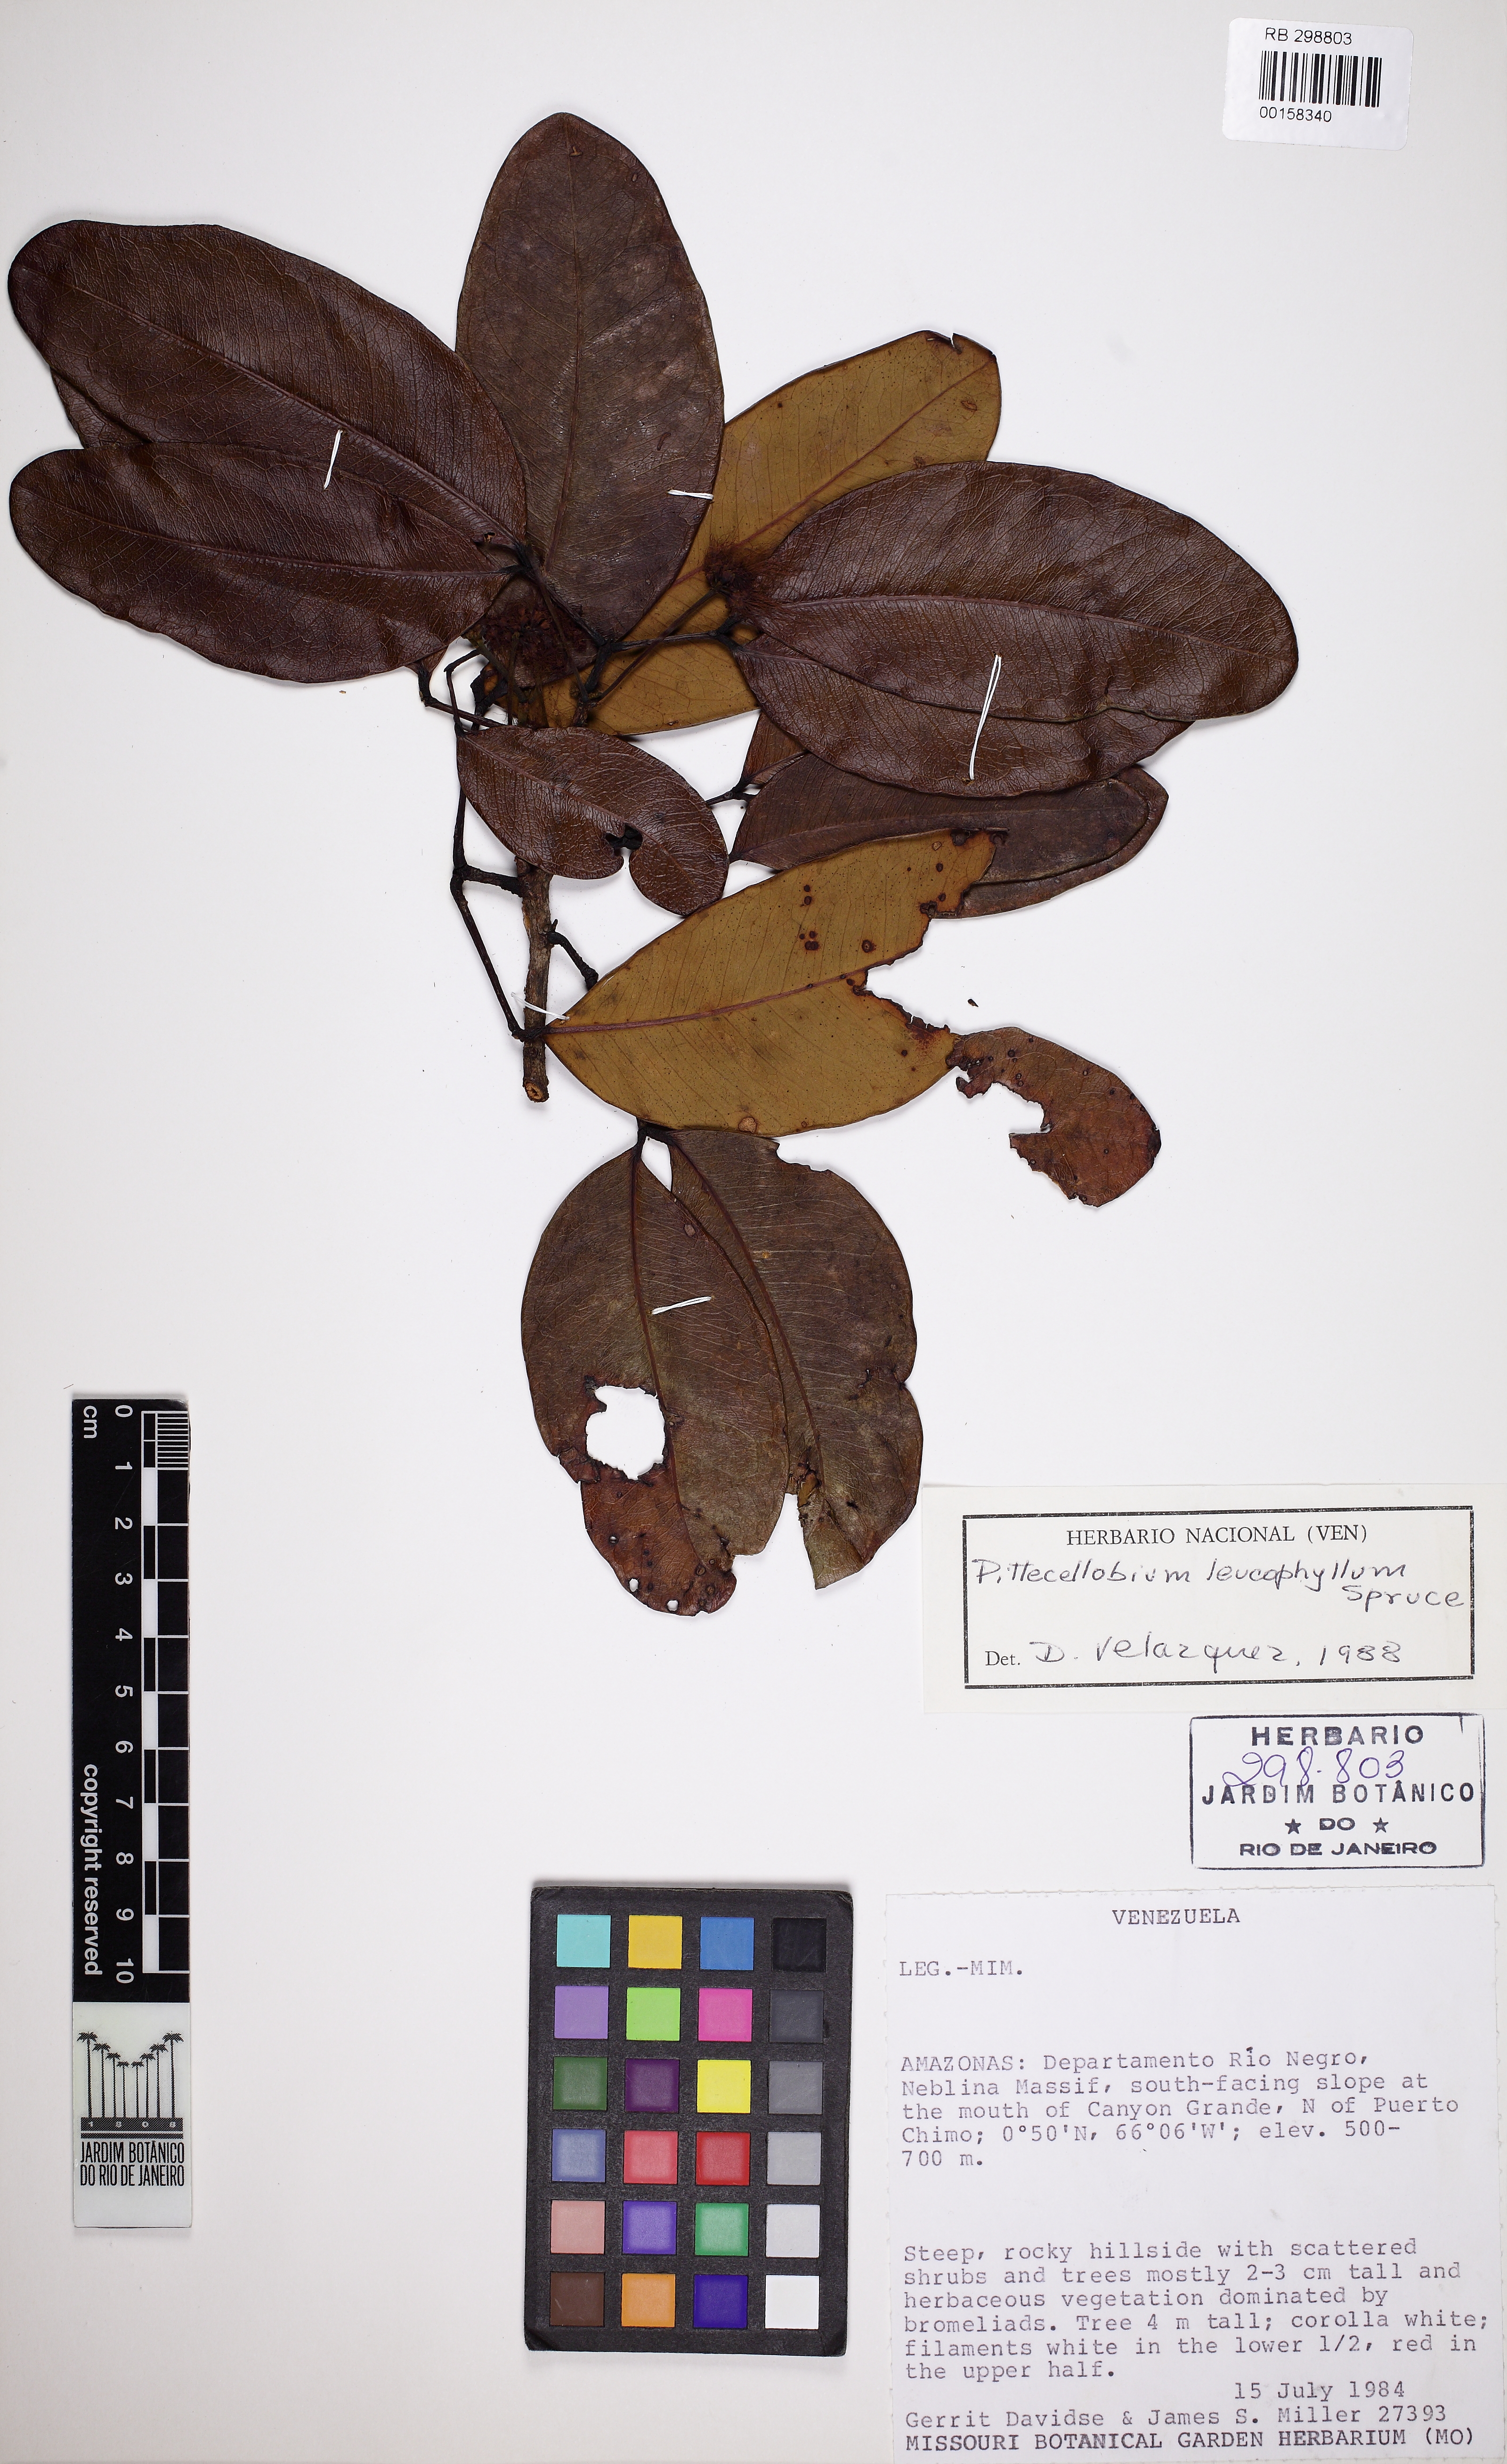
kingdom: Plantae
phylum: Tracheophyta
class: Magnoliopsida
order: Fabales
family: Fabaceae
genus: Jupunba
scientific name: Jupunba leucophylla
